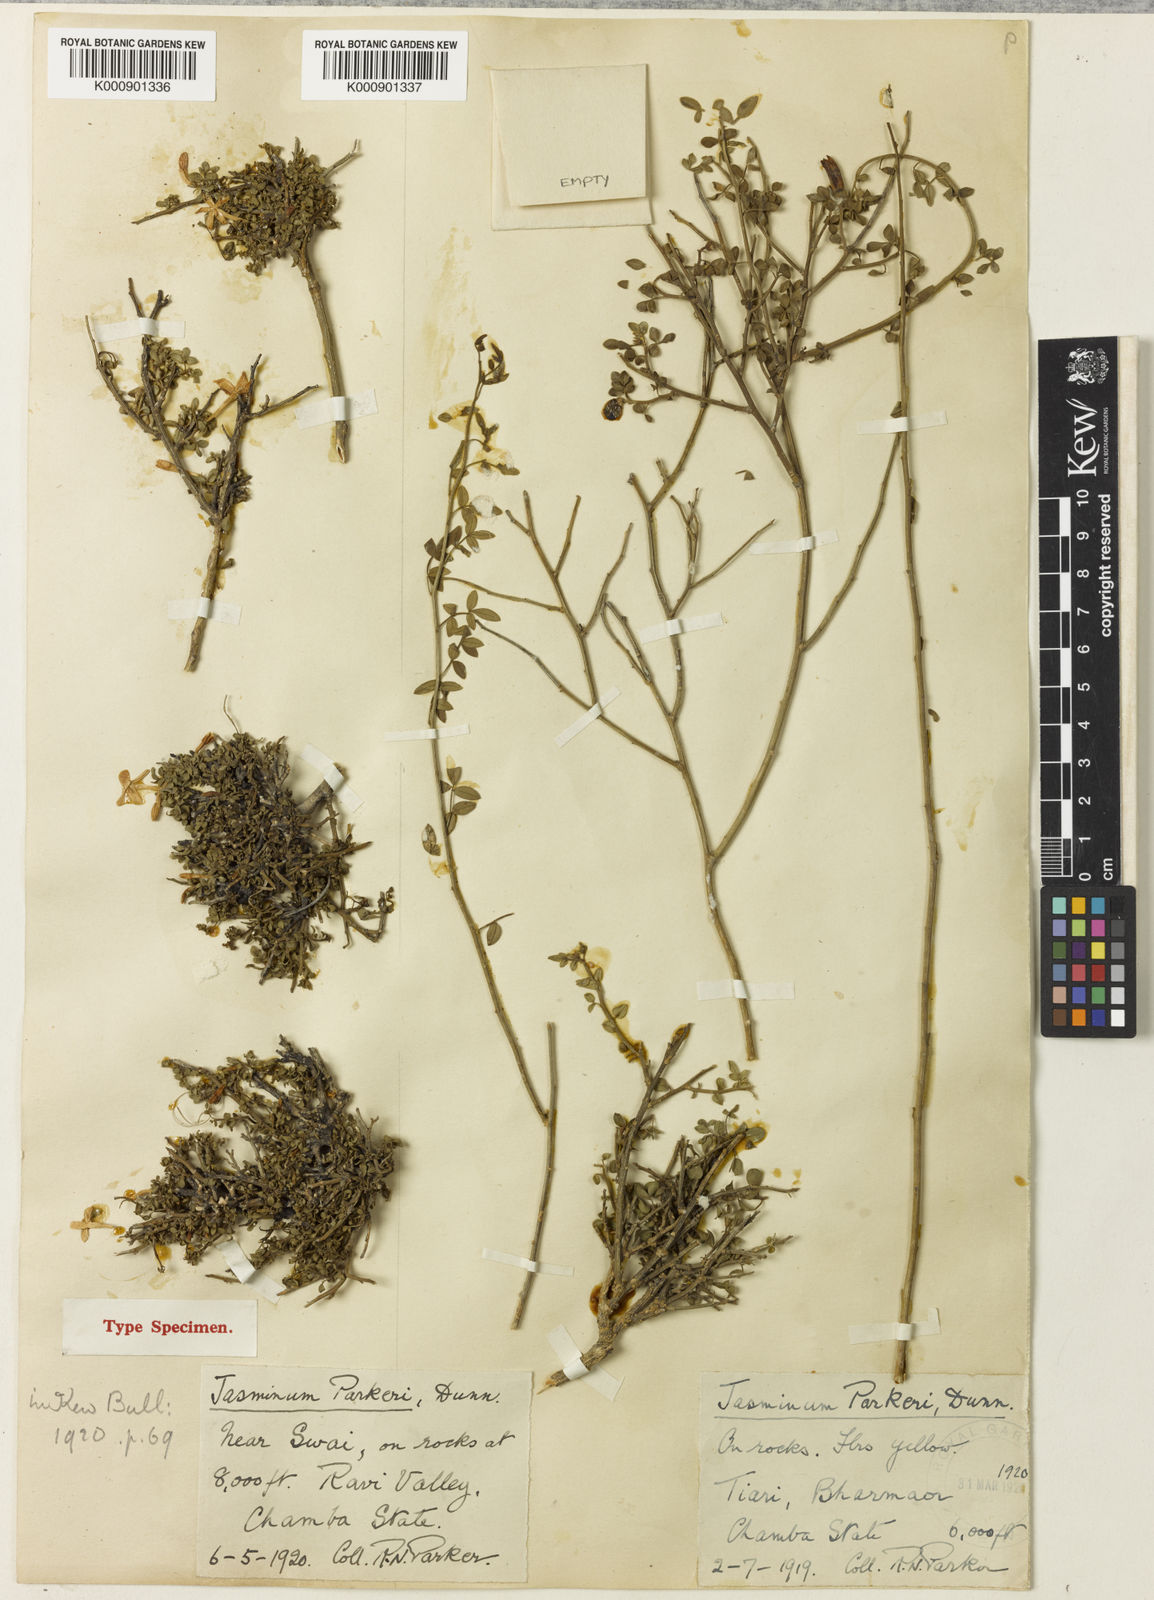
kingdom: Plantae
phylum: Tracheophyta
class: Magnoliopsida
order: Lamiales
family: Oleaceae
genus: Chrysojasminum
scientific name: Chrysojasminum parkeri
